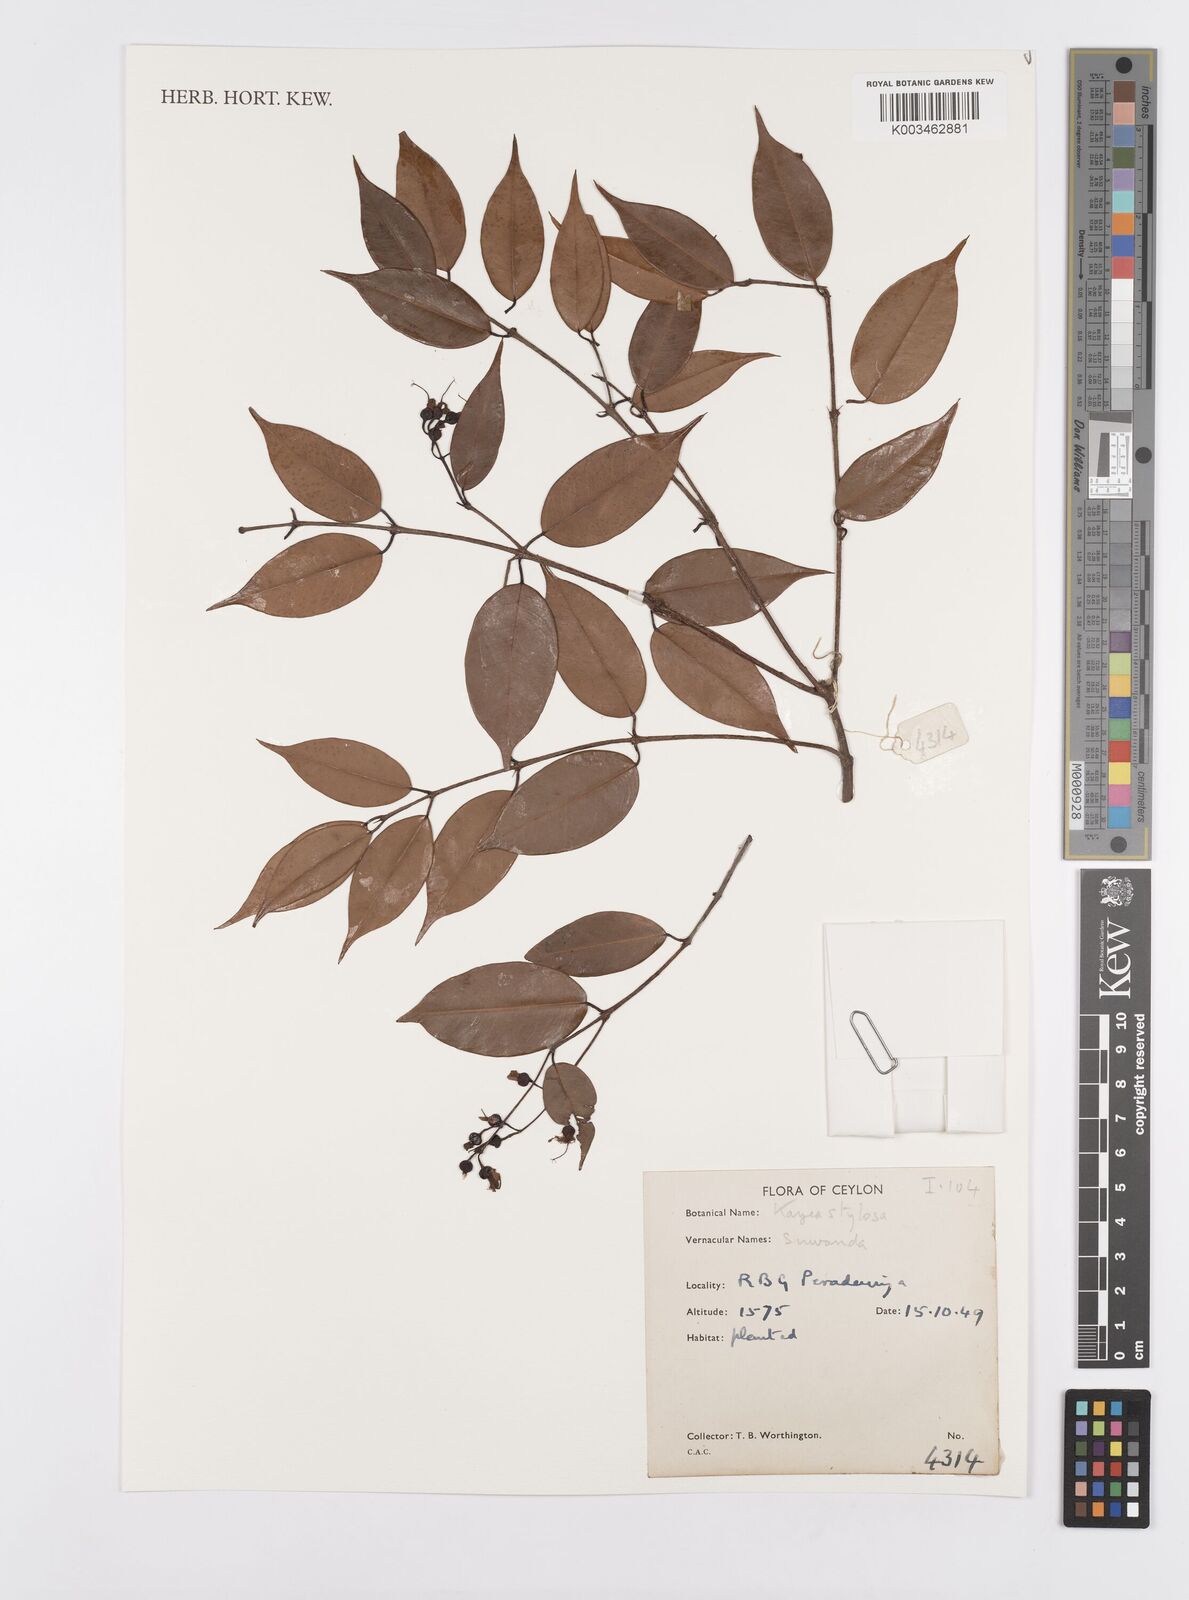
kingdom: Plantae
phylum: Tracheophyta
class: Magnoliopsida
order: Malpighiales
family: Calophyllaceae
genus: Kayea
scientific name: Kayea stylosa
